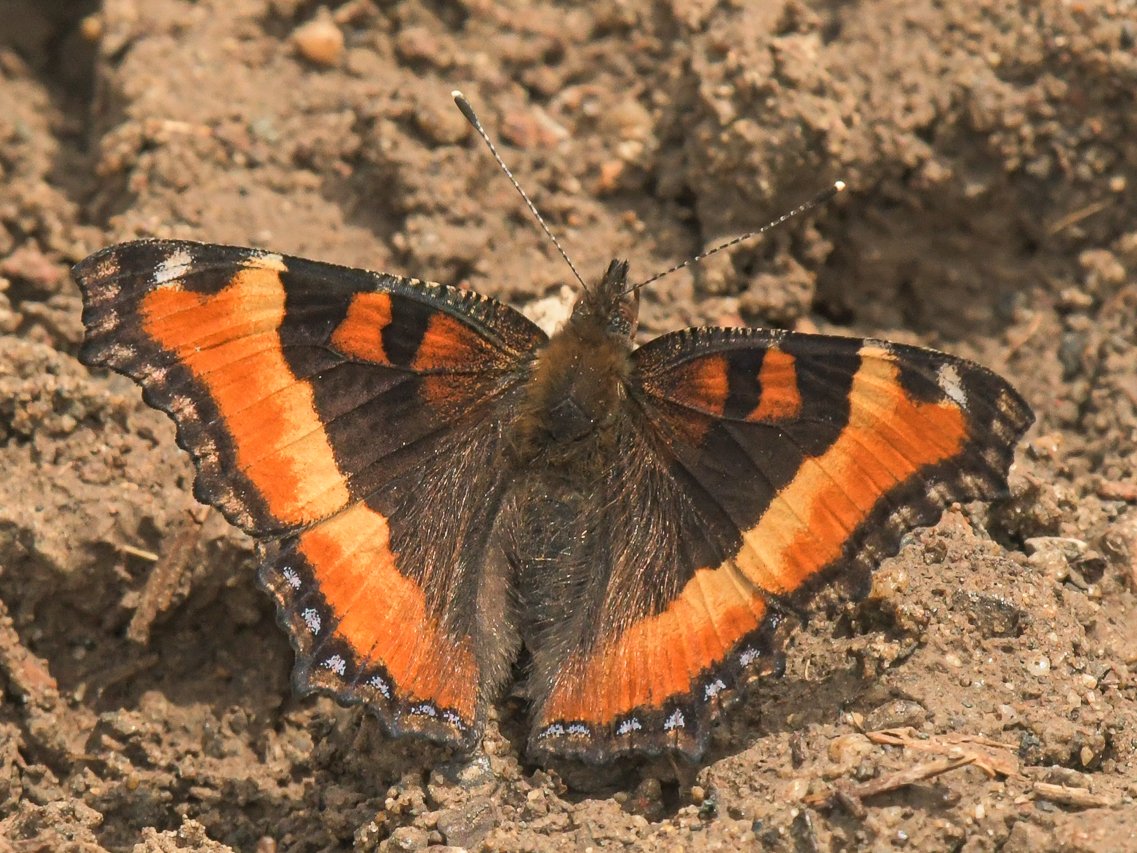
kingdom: Animalia
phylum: Arthropoda
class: Insecta
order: Lepidoptera
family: Nymphalidae
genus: Aglais
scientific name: Aglais milberti
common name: Milbert's Tortoiseshell
